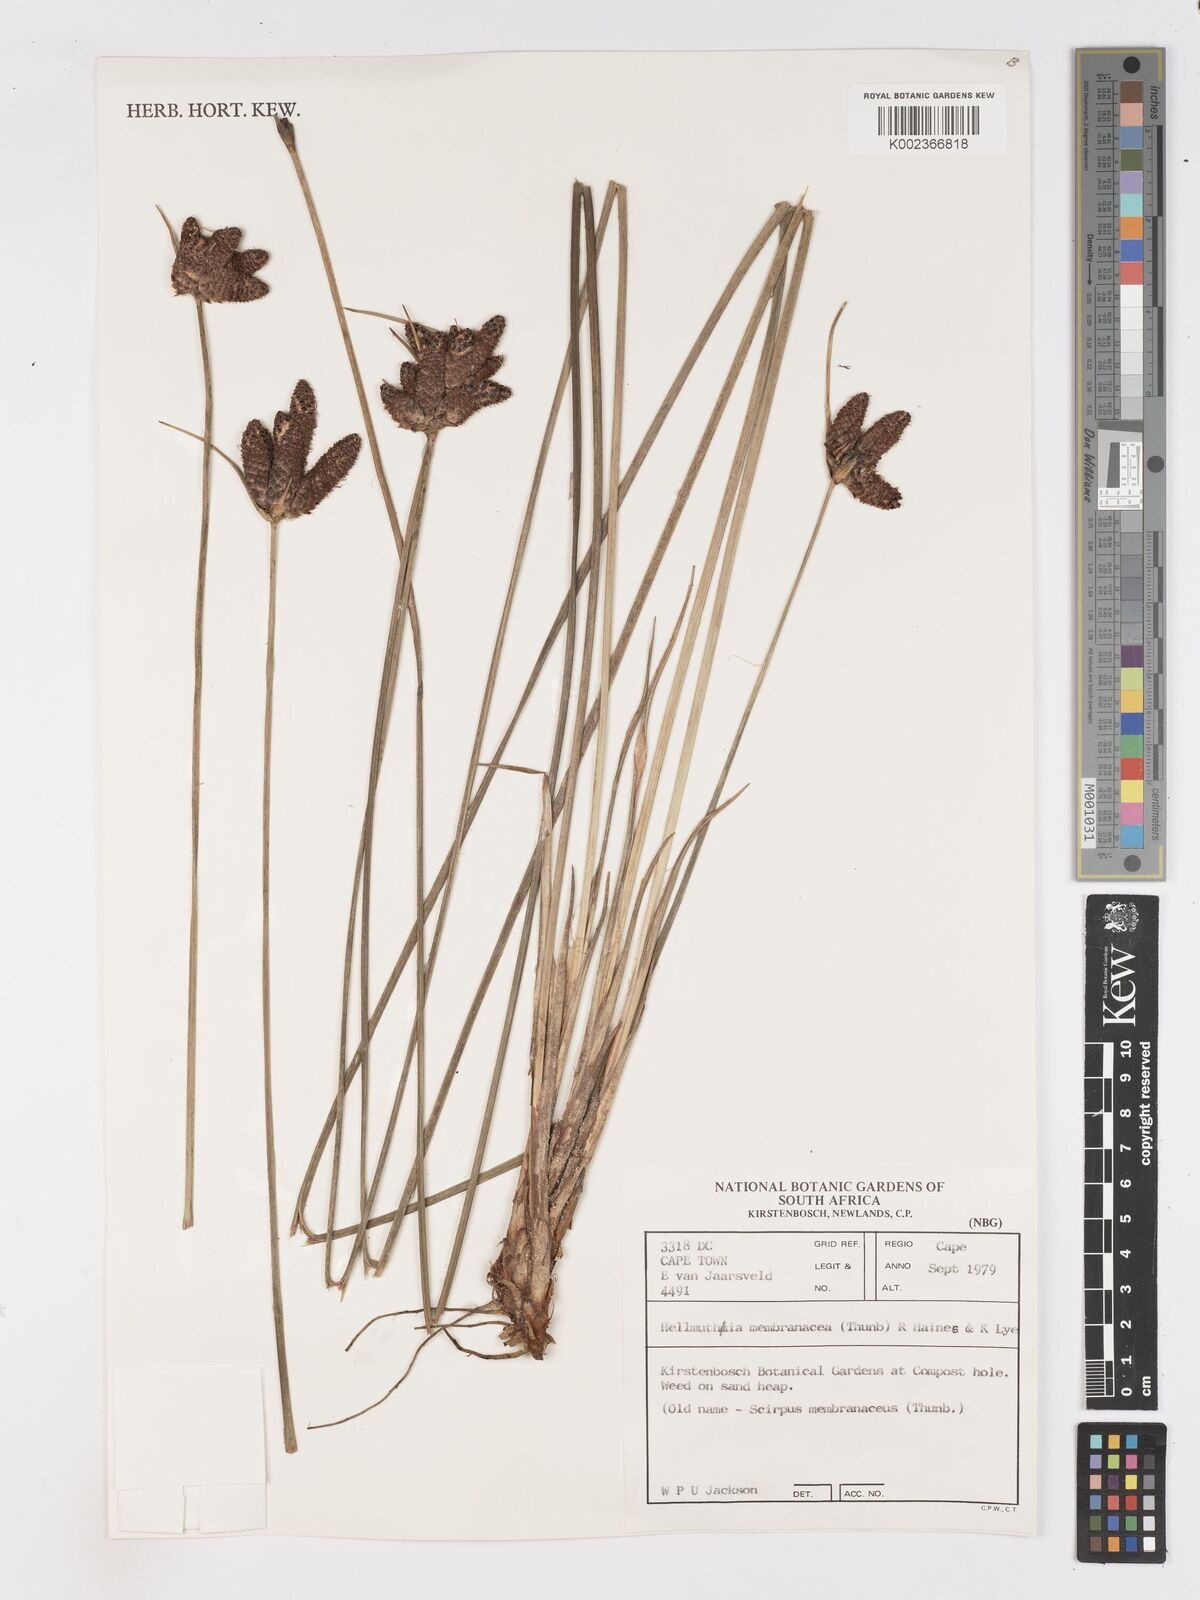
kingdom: Plantae
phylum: Tracheophyta
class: Liliopsida
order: Poales
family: Cyperaceae
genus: Hellmuthia
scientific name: Hellmuthia membranacea
